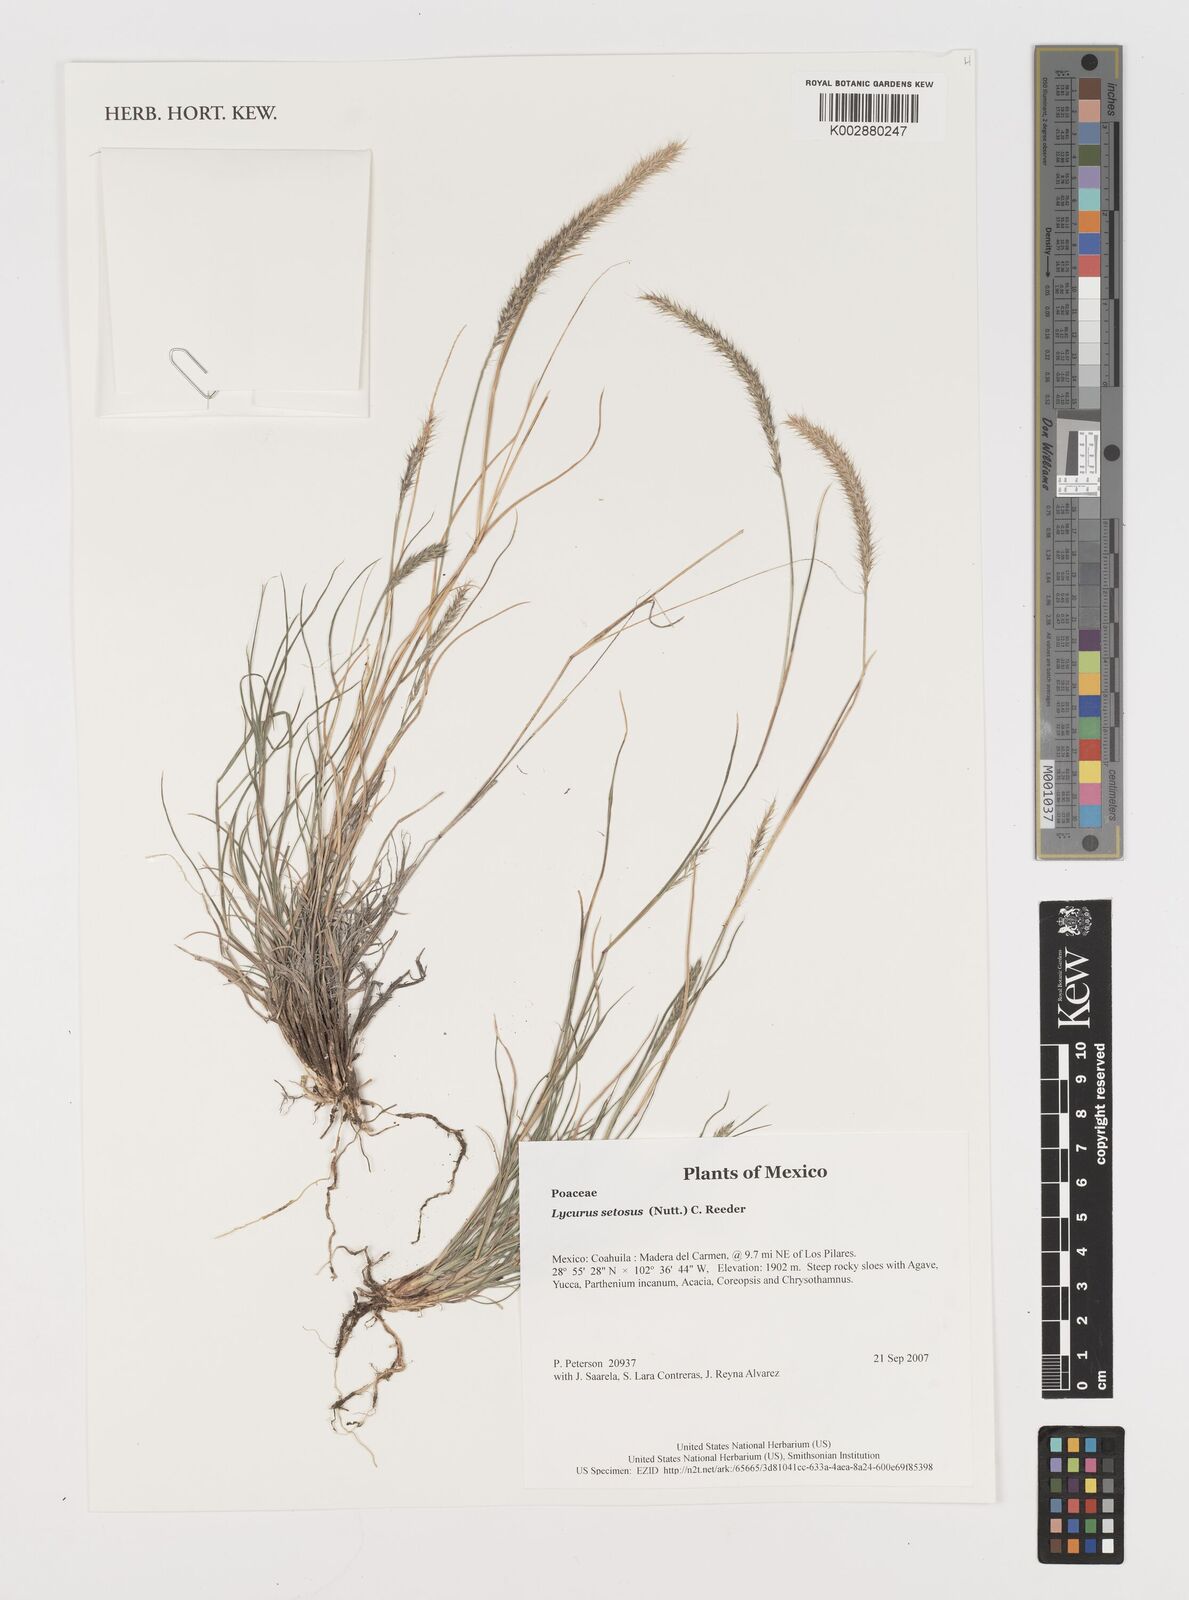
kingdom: Plantae
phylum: Tracheophyta
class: Liliopsida
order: Poales
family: Poaceae
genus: Muhlenbergia
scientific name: Muhlenbergia alopecuroides
